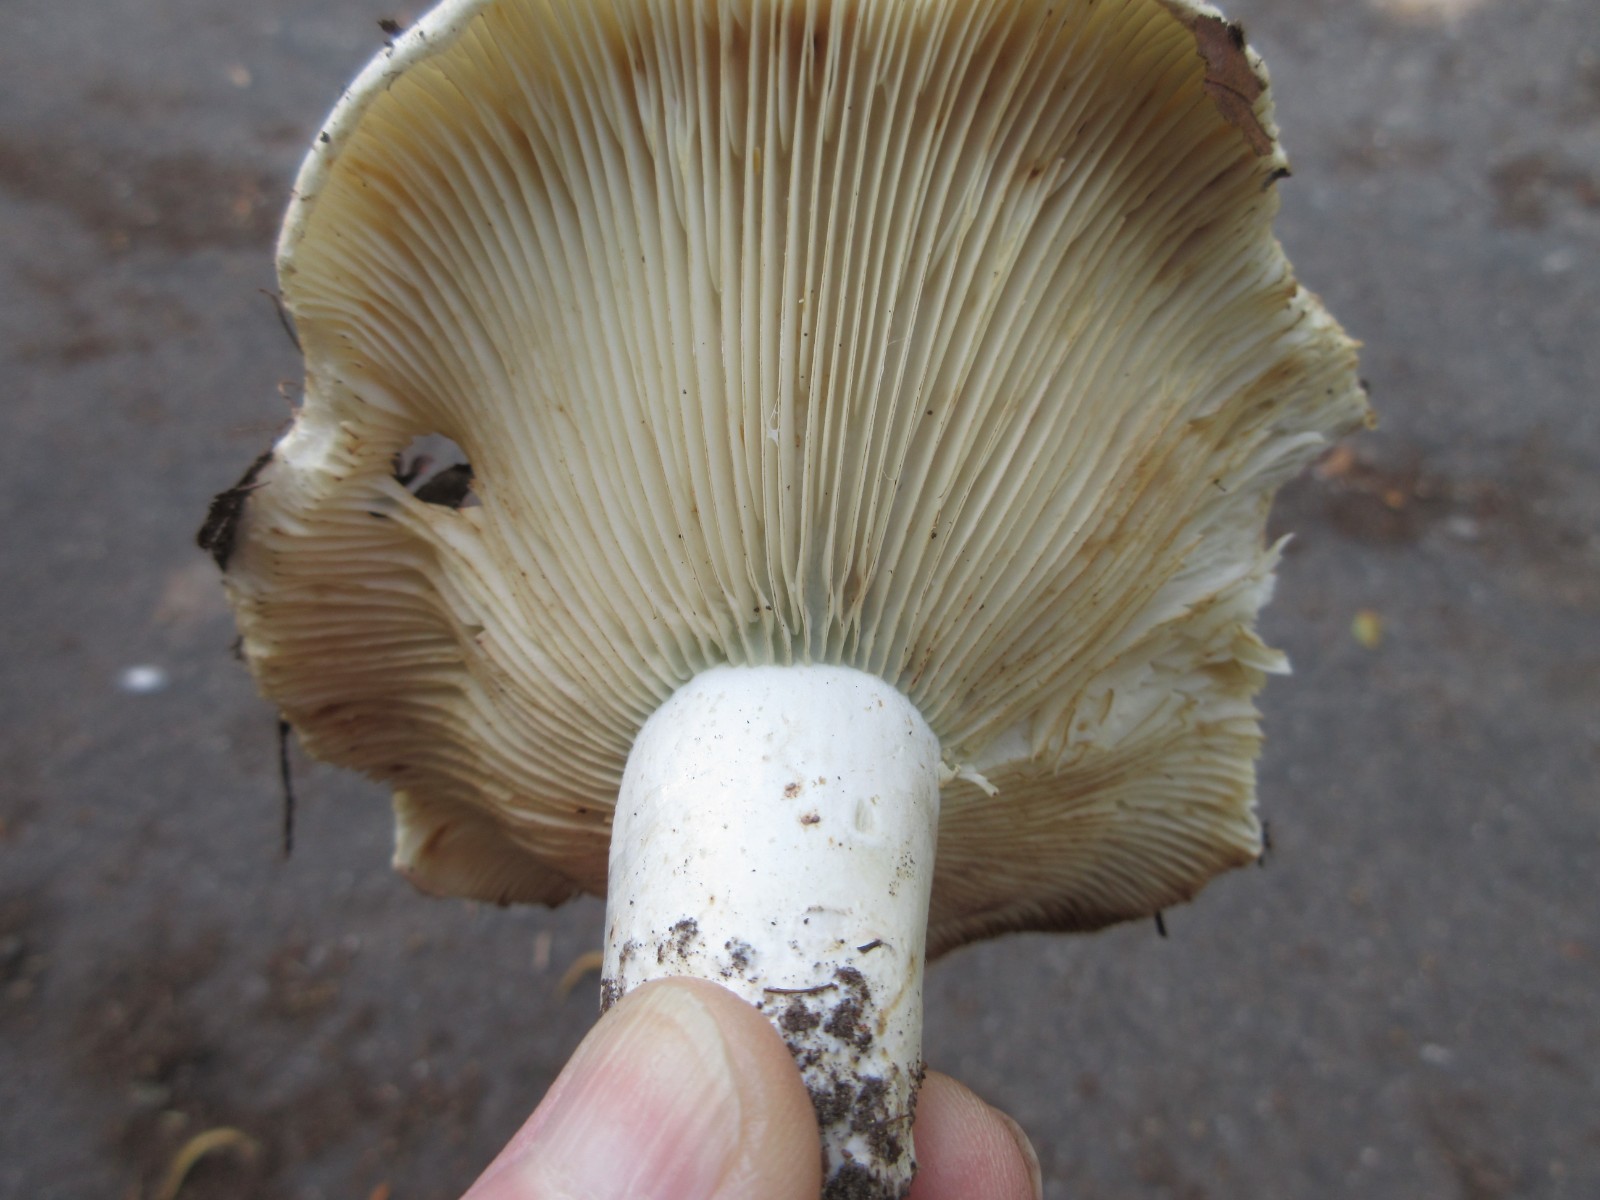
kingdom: Fungi
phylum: Basidiomycota
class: Agaricomycetes
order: Russulales
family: Russulaceae
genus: Russula
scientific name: Russula chloroides
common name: grønhalset tragt-skørhat
